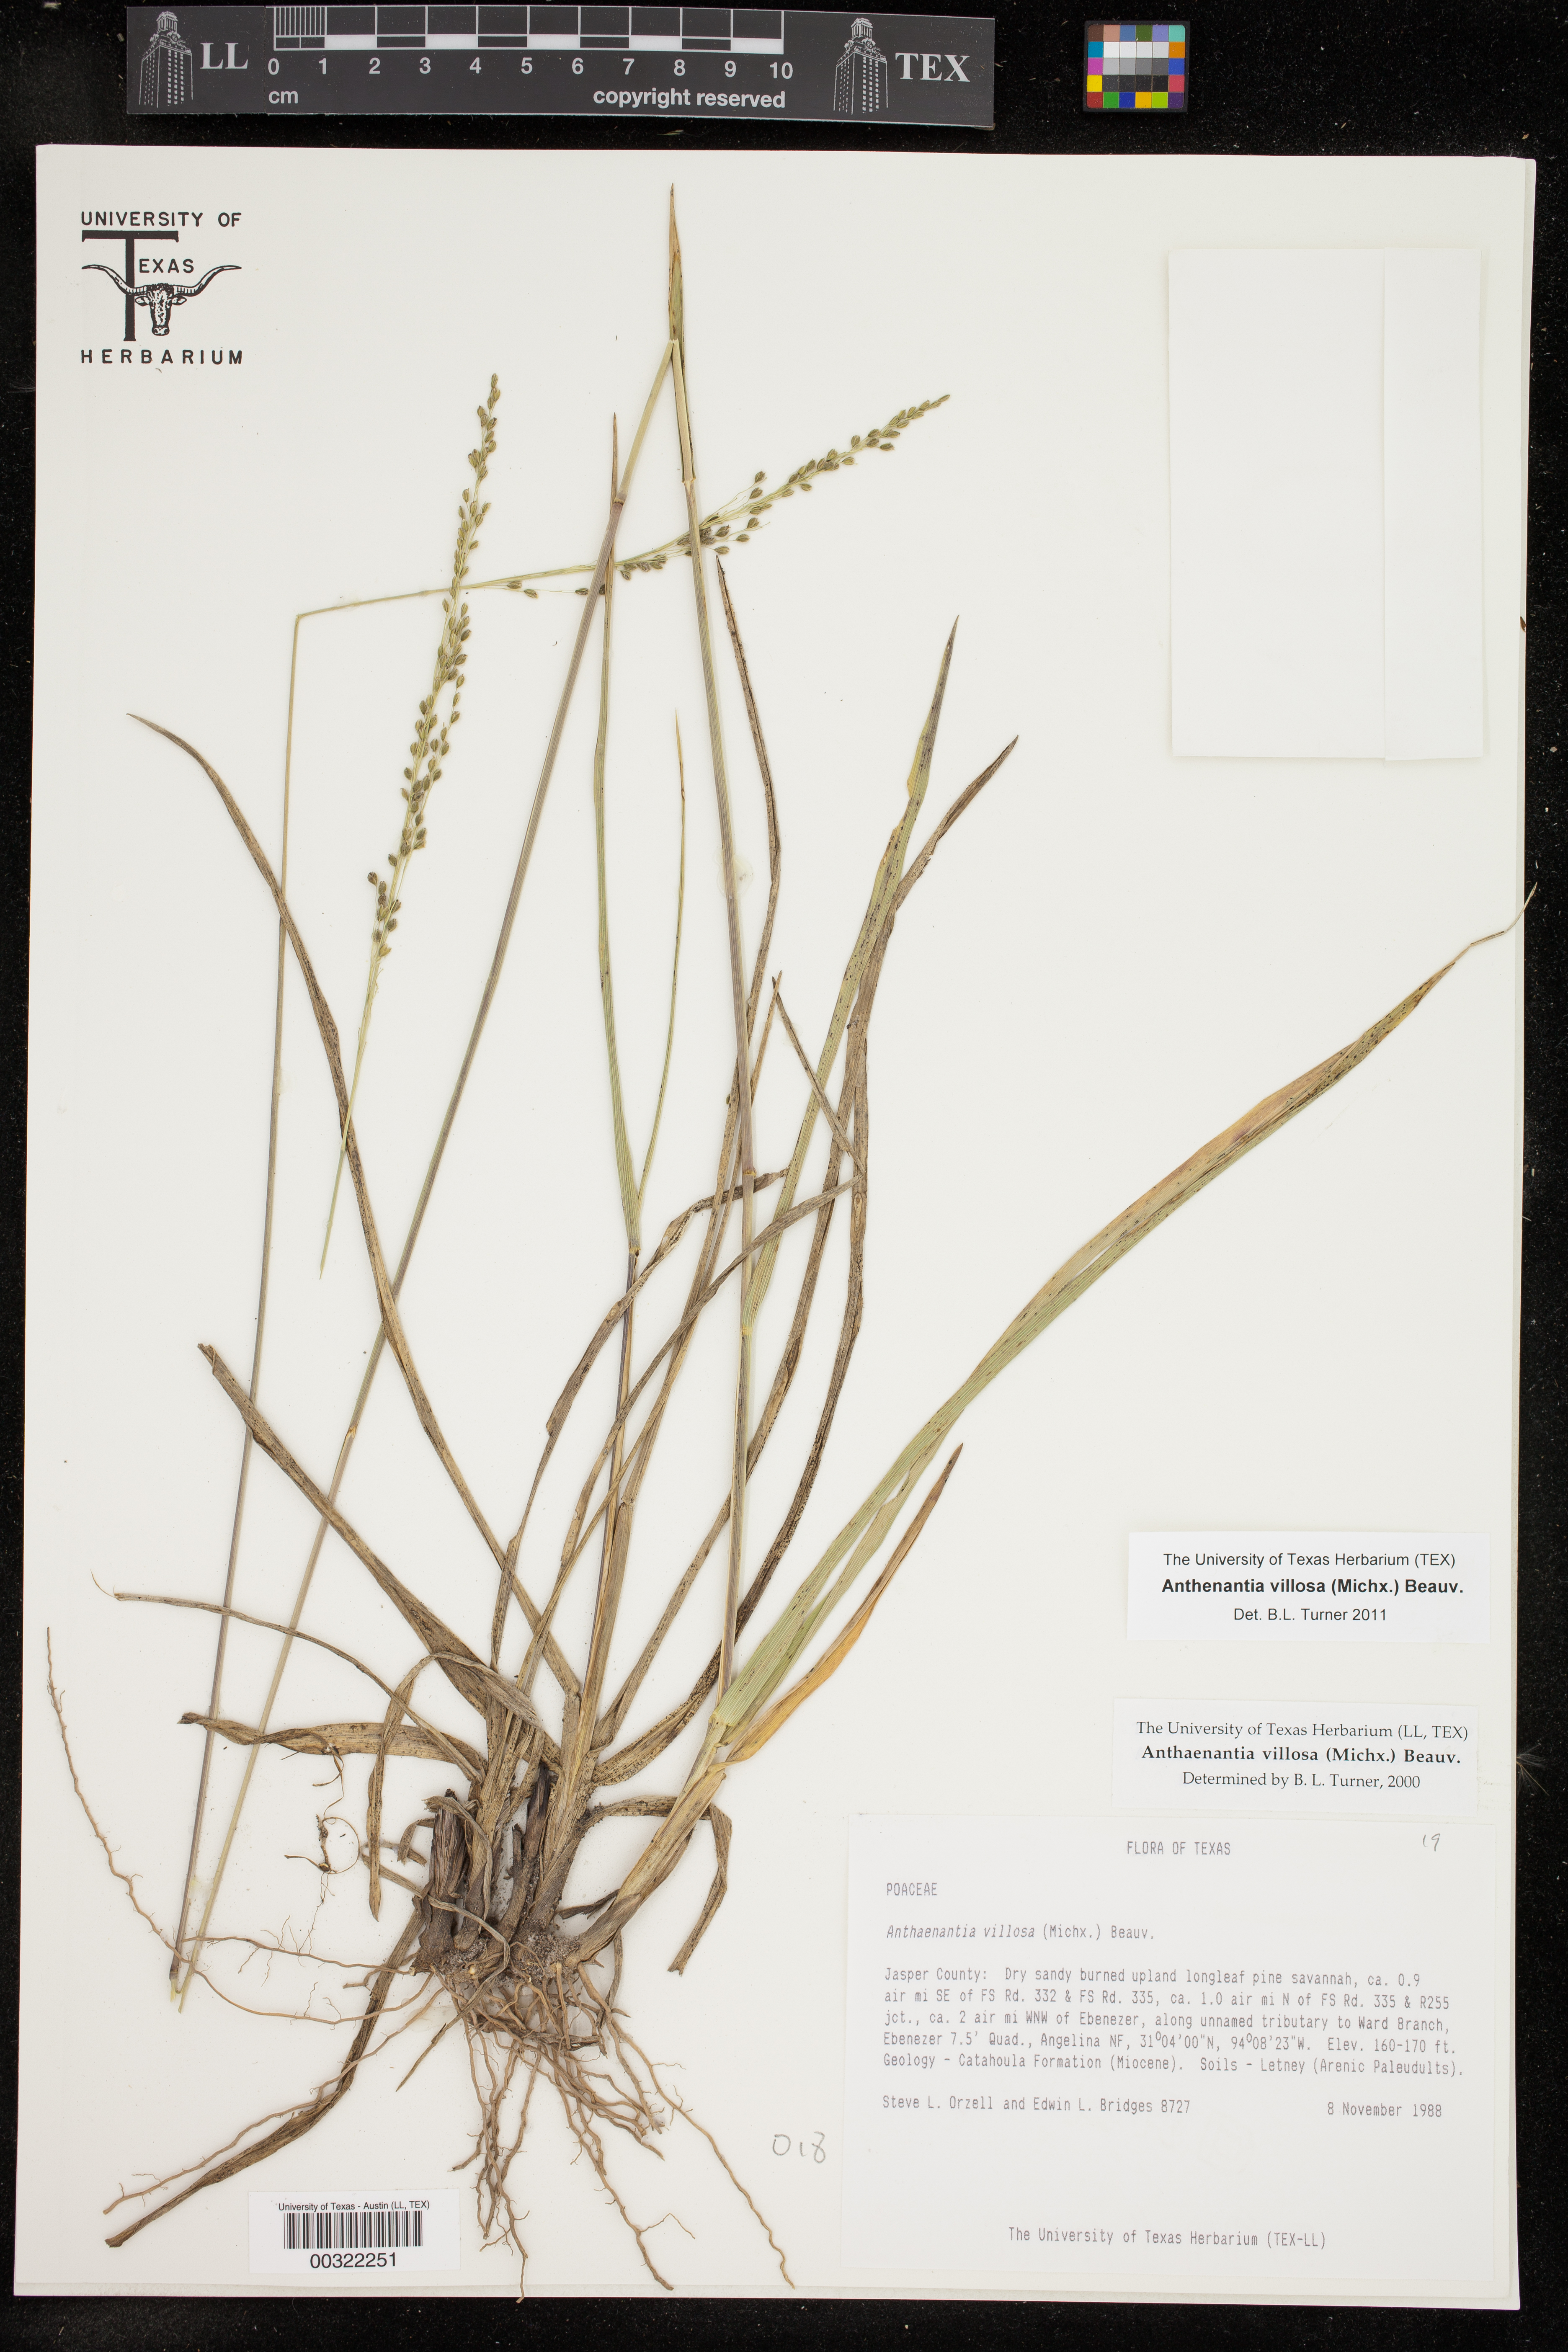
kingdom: Plantae
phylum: Tracheophyta
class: Liliopsida
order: Poales
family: Poaceae
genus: Anthenantia
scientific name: Anthenantia villosa
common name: Green silkyscale
